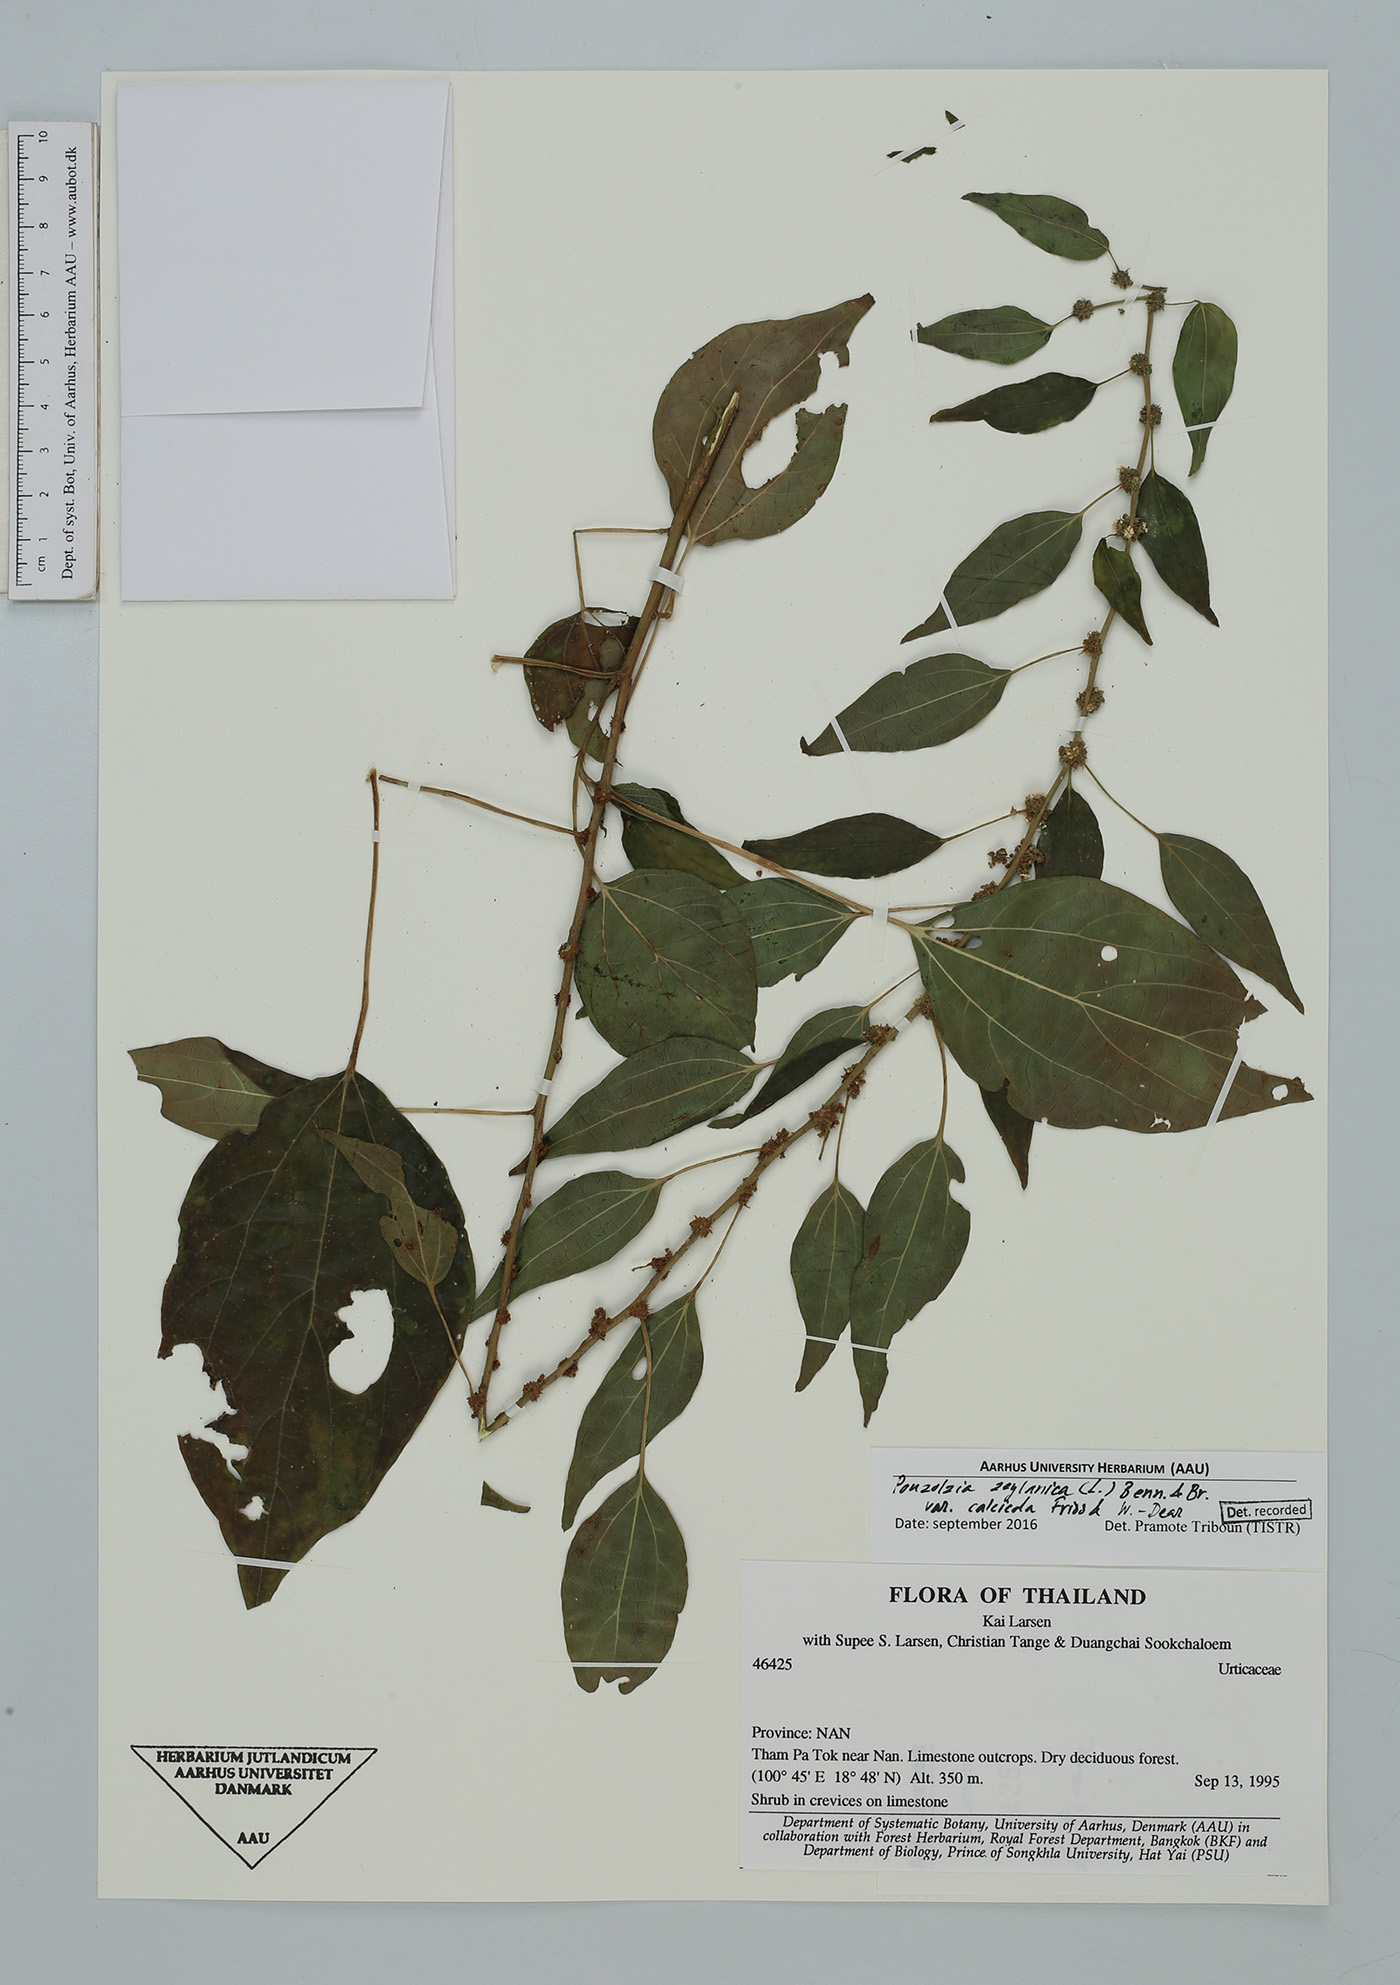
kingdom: Plantae
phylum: Tracheophyta
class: Magnoliopsida
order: Rosales
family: Urticaceae
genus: Pouzolzia
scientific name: Pouzolzia zeylanica
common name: Graceful pouzolzsbush
